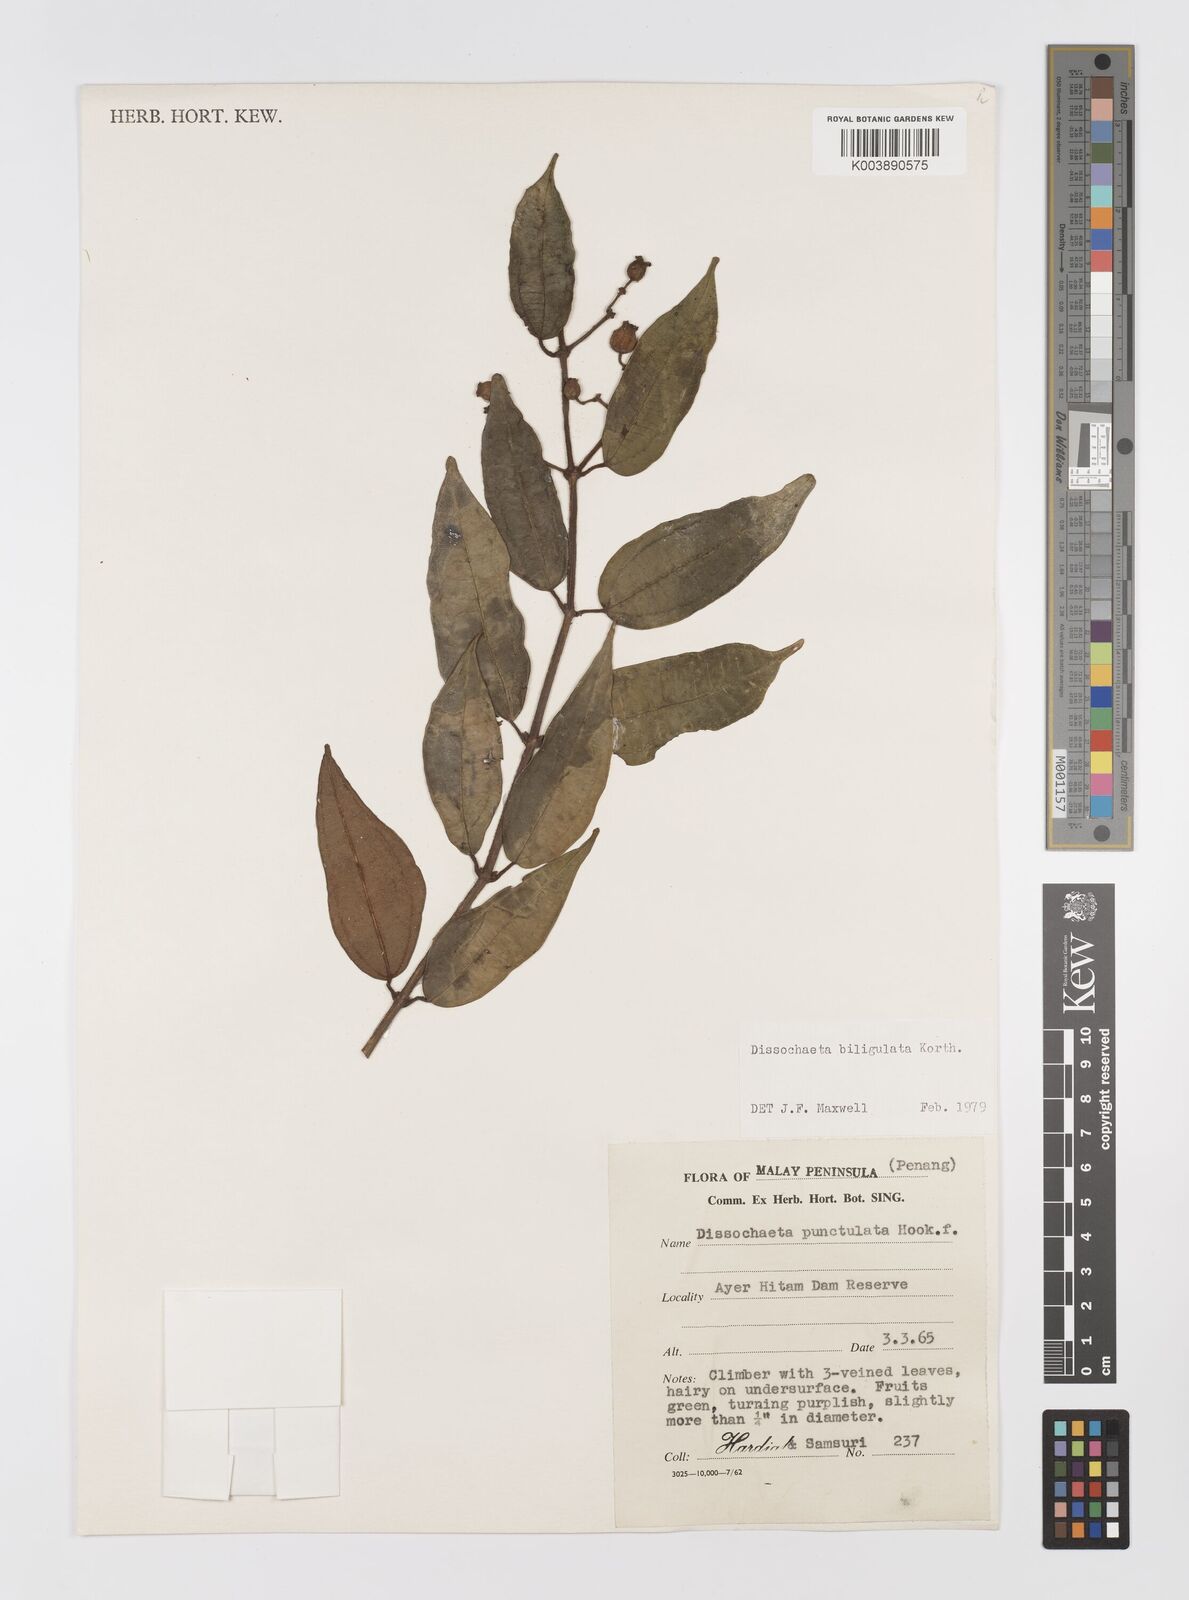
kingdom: Plantae
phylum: Tracheophyta
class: Magnoliopsida
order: Myrtales
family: Melastomataceae
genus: Dissochaeta
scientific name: Dissochaeta biligulata
